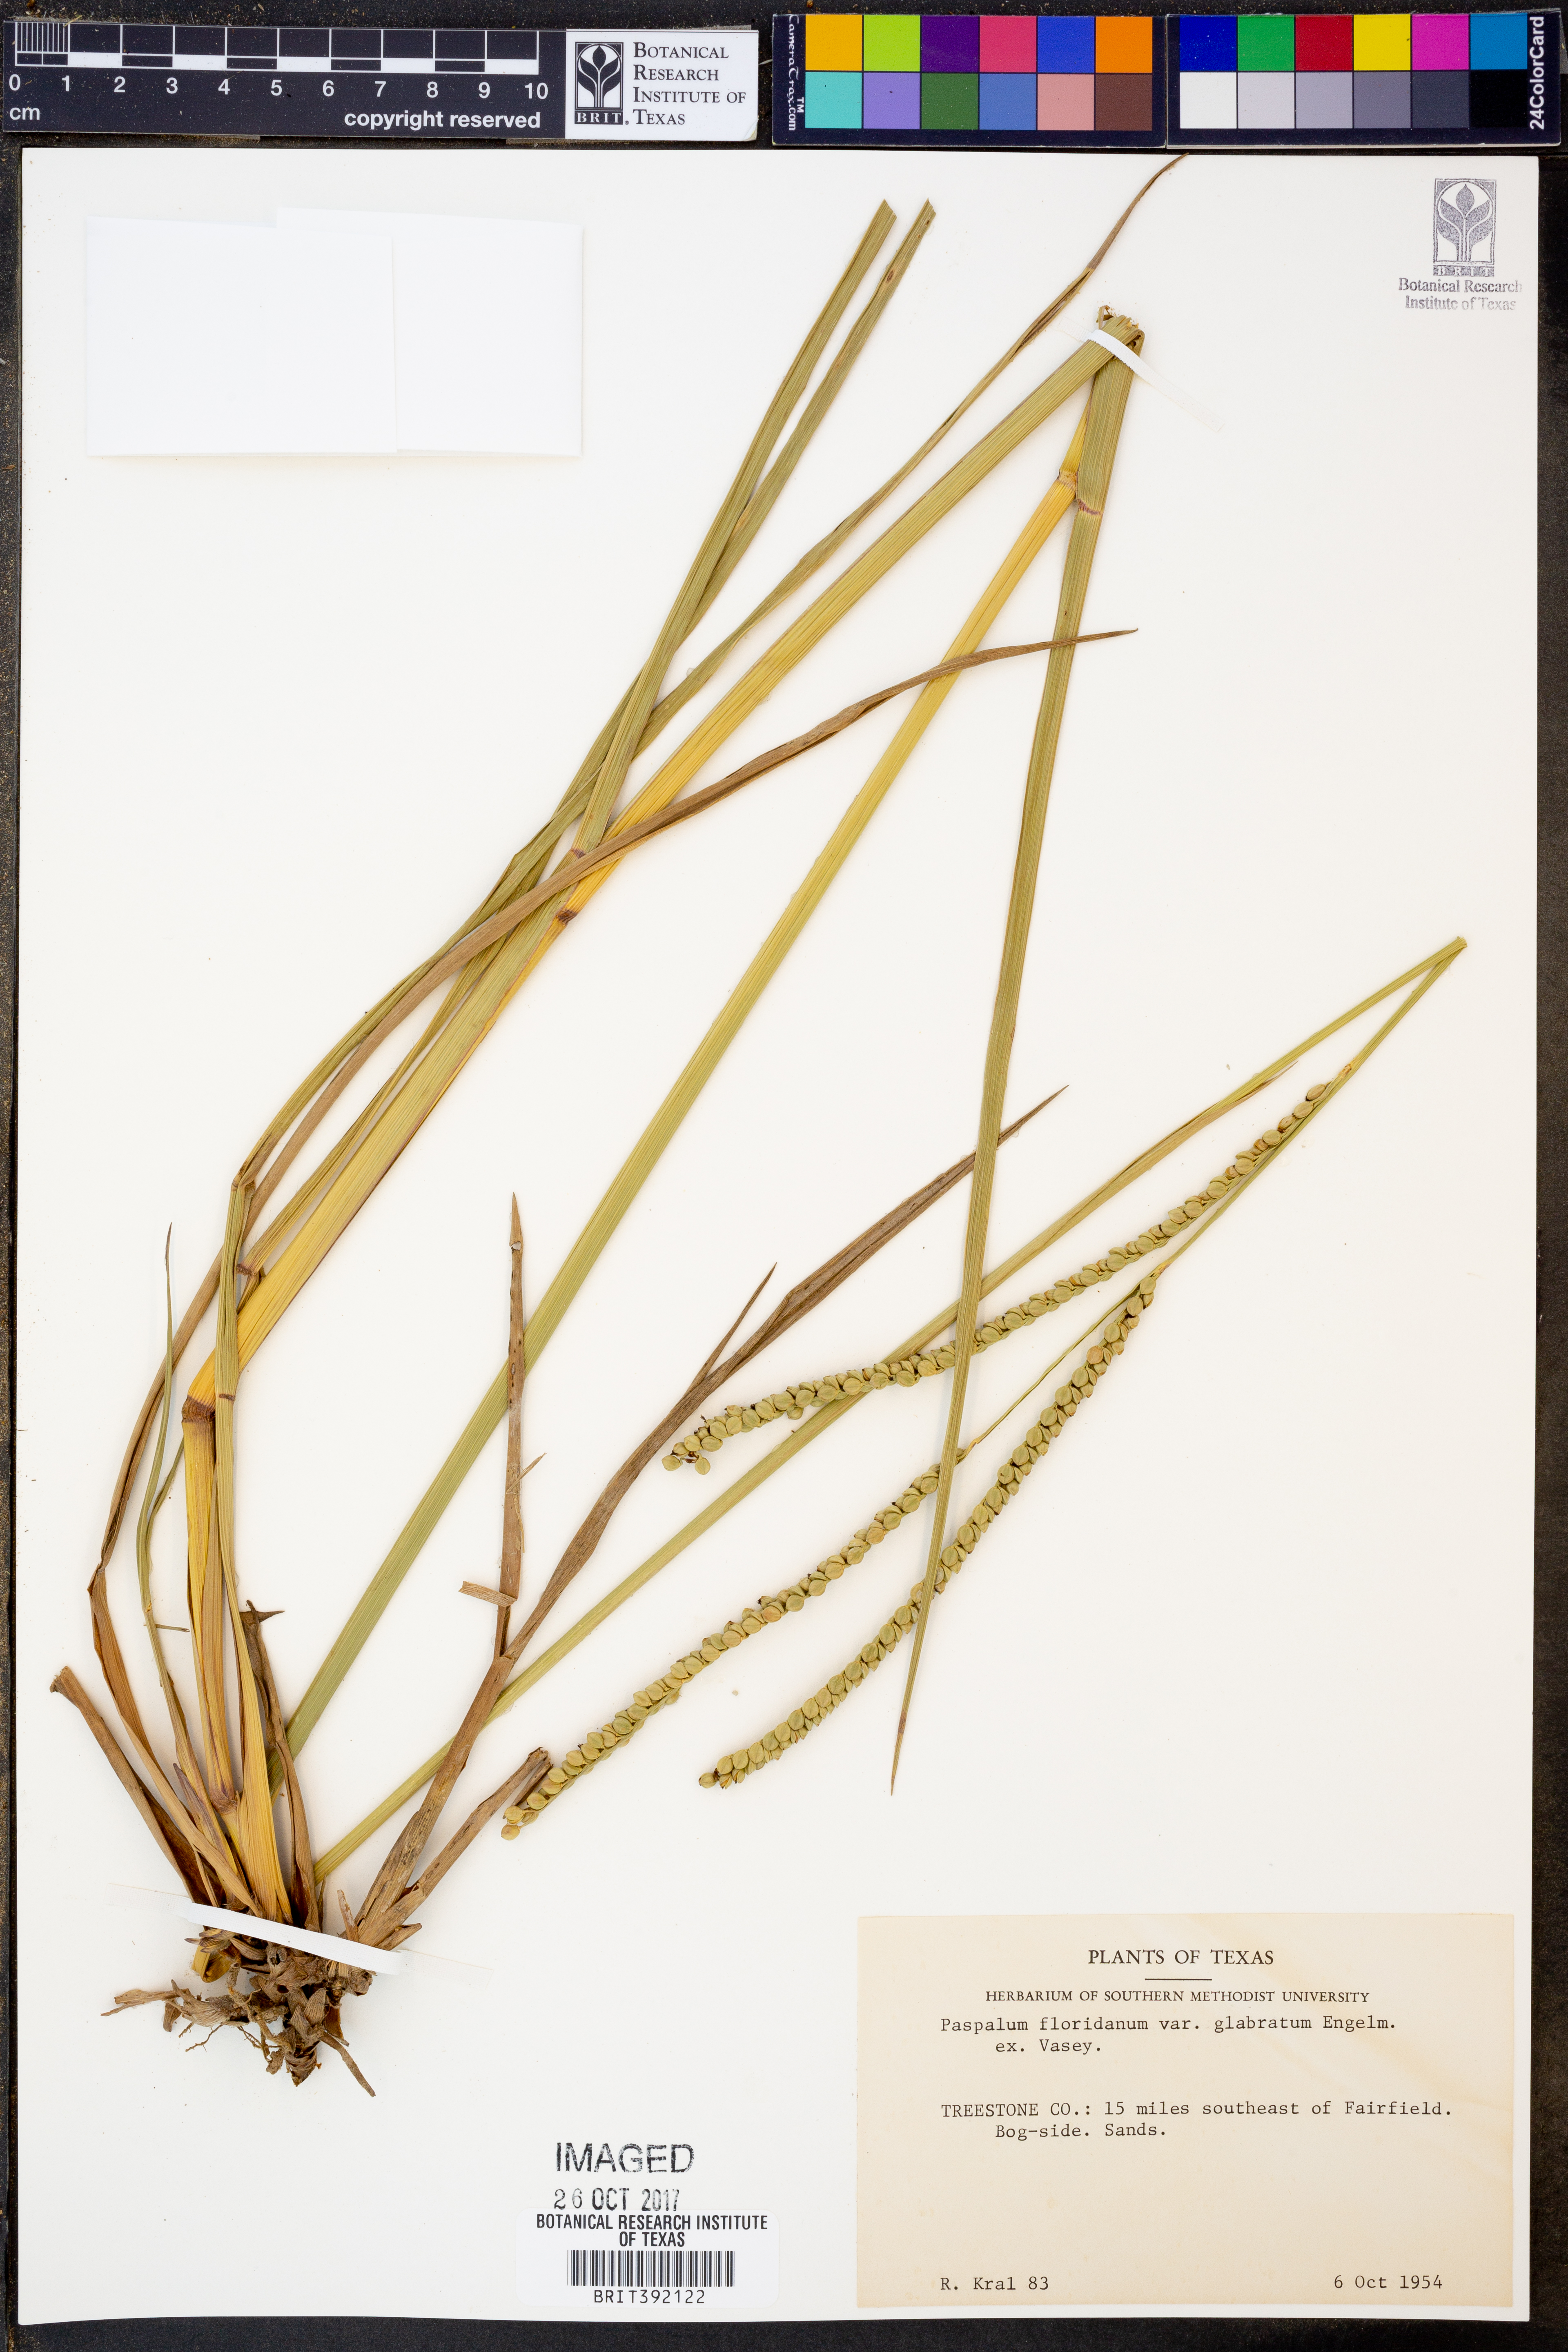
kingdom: Plantae
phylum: Tracheophyta
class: Liliopsida
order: Poales
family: Poaceae
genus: Paspalum
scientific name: Paspalum floridanum
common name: Florida paspalum
